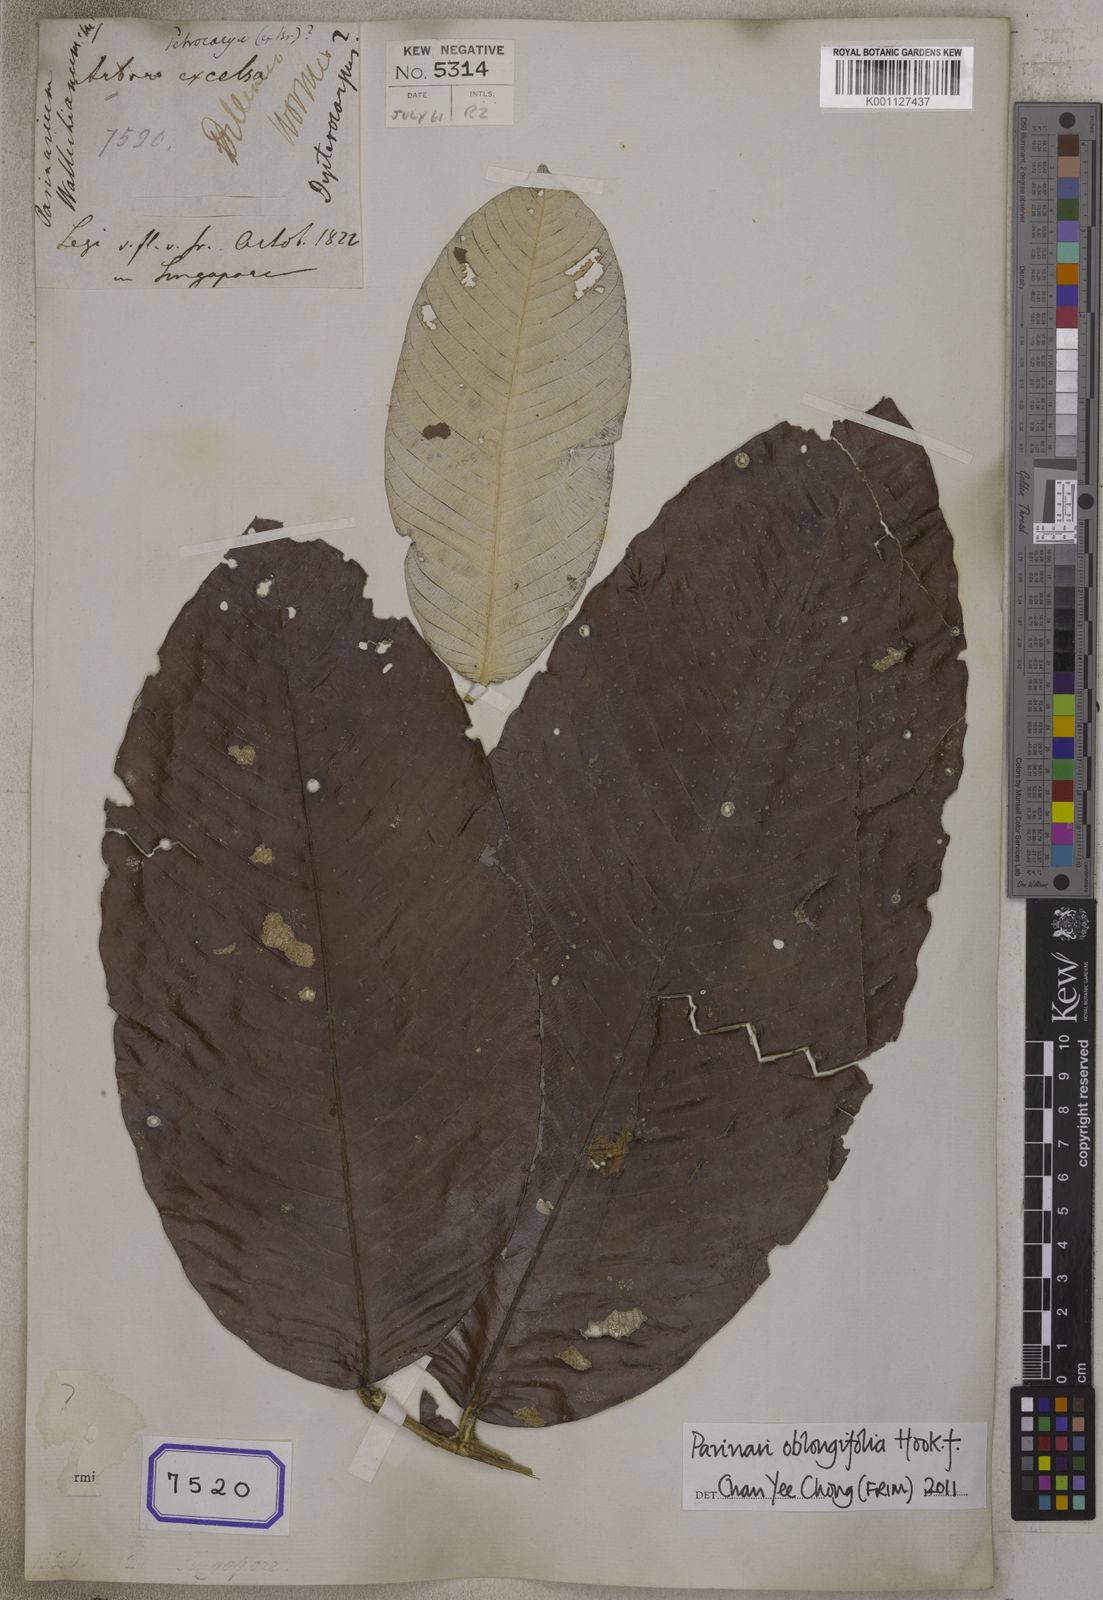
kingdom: Plantae
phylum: Tracheophyta
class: Liliopsida
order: Poales
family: Poaceae
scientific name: Poaceae
